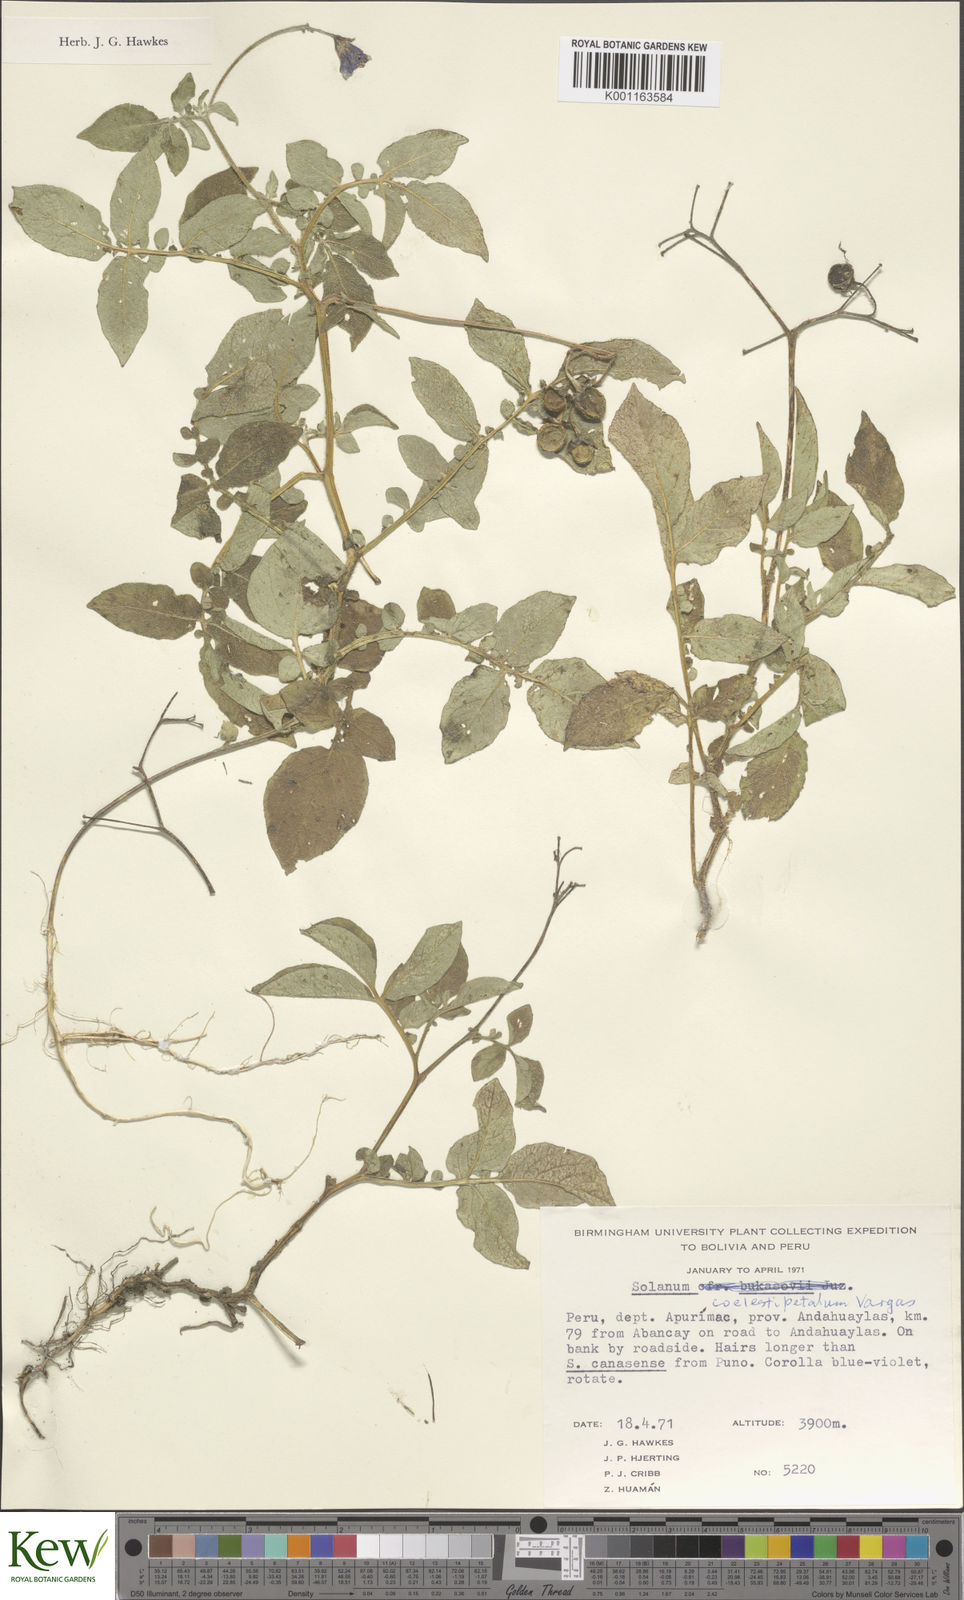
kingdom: Plantae
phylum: Tracheophyta
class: Magnoliopsida
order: Solanales
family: Solanaceae
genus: Solanum
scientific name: Solanum brevicaule
